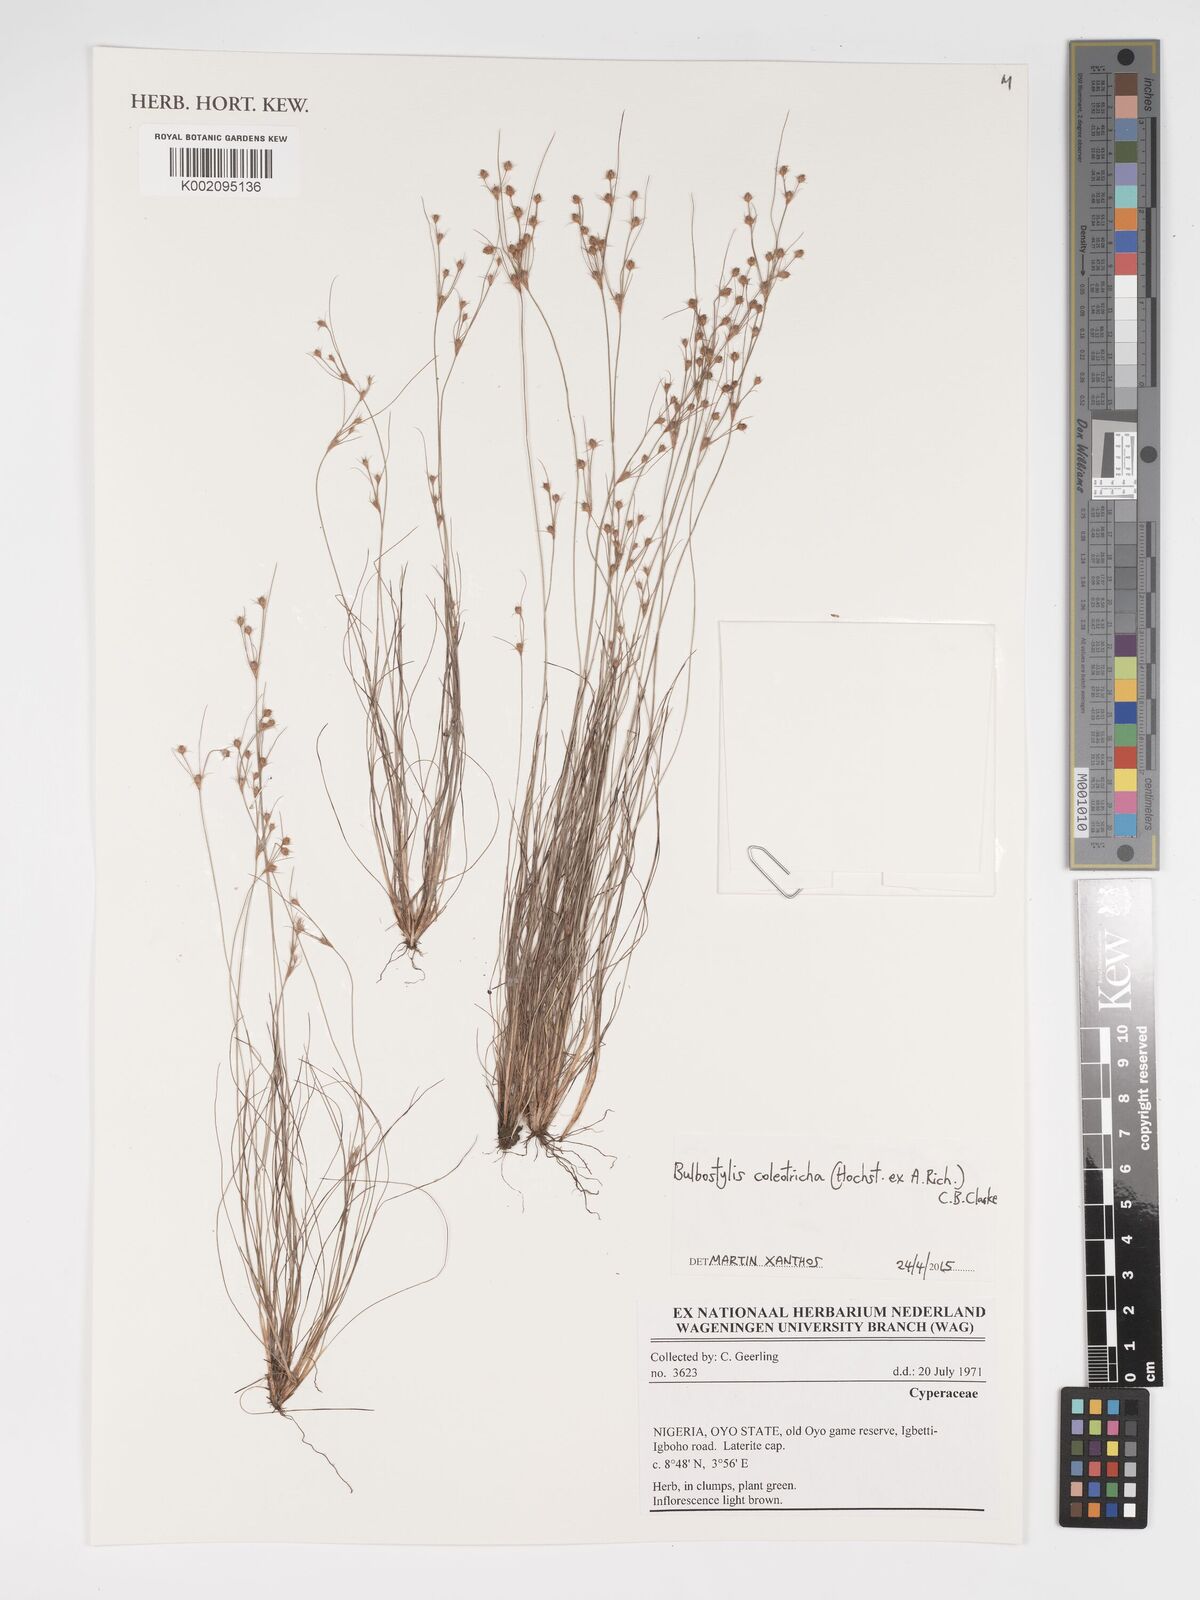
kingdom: Plantae
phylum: Tracheophyta
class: Liliopsida
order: Poales
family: Cyperaceae
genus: Bulbostylis
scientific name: Bulbostylis coleotricha
